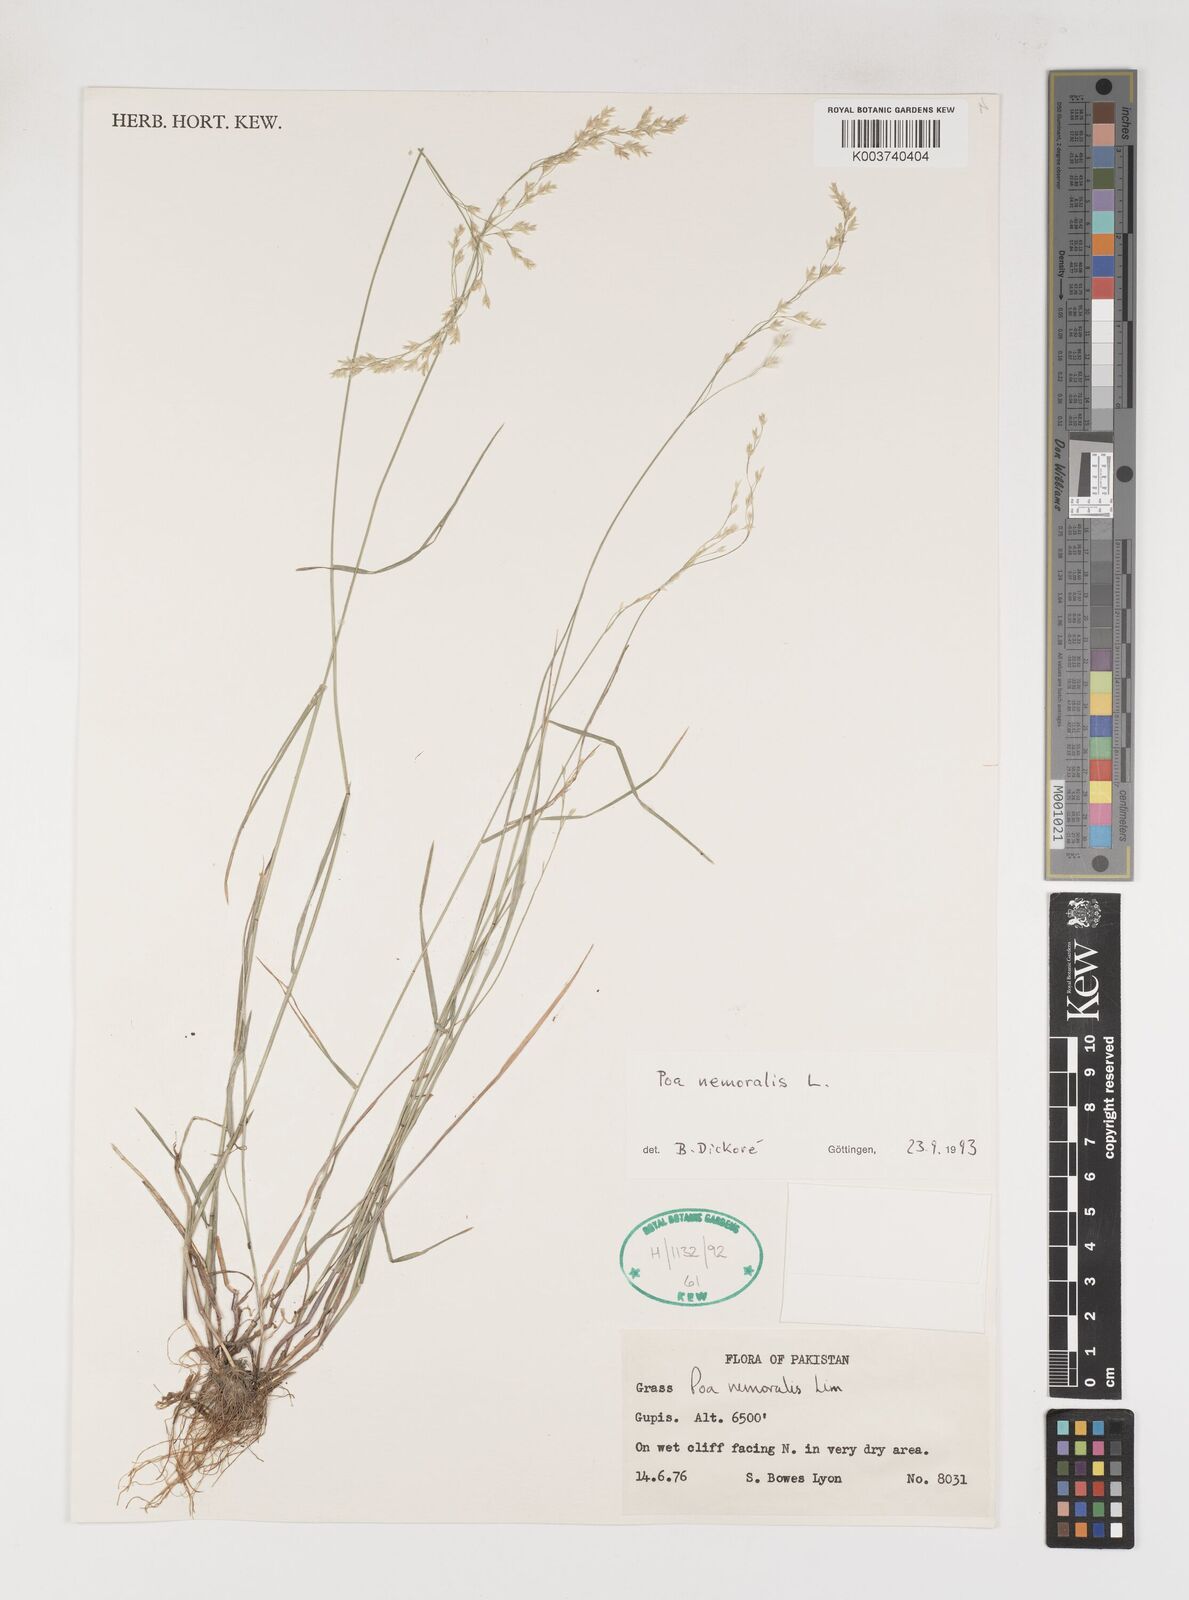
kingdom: Plantae
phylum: Tracheophyta
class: Liliopsida
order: Poales
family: Poaceae
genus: Poa
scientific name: Poa nemoralis
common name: Wood bluegrass
